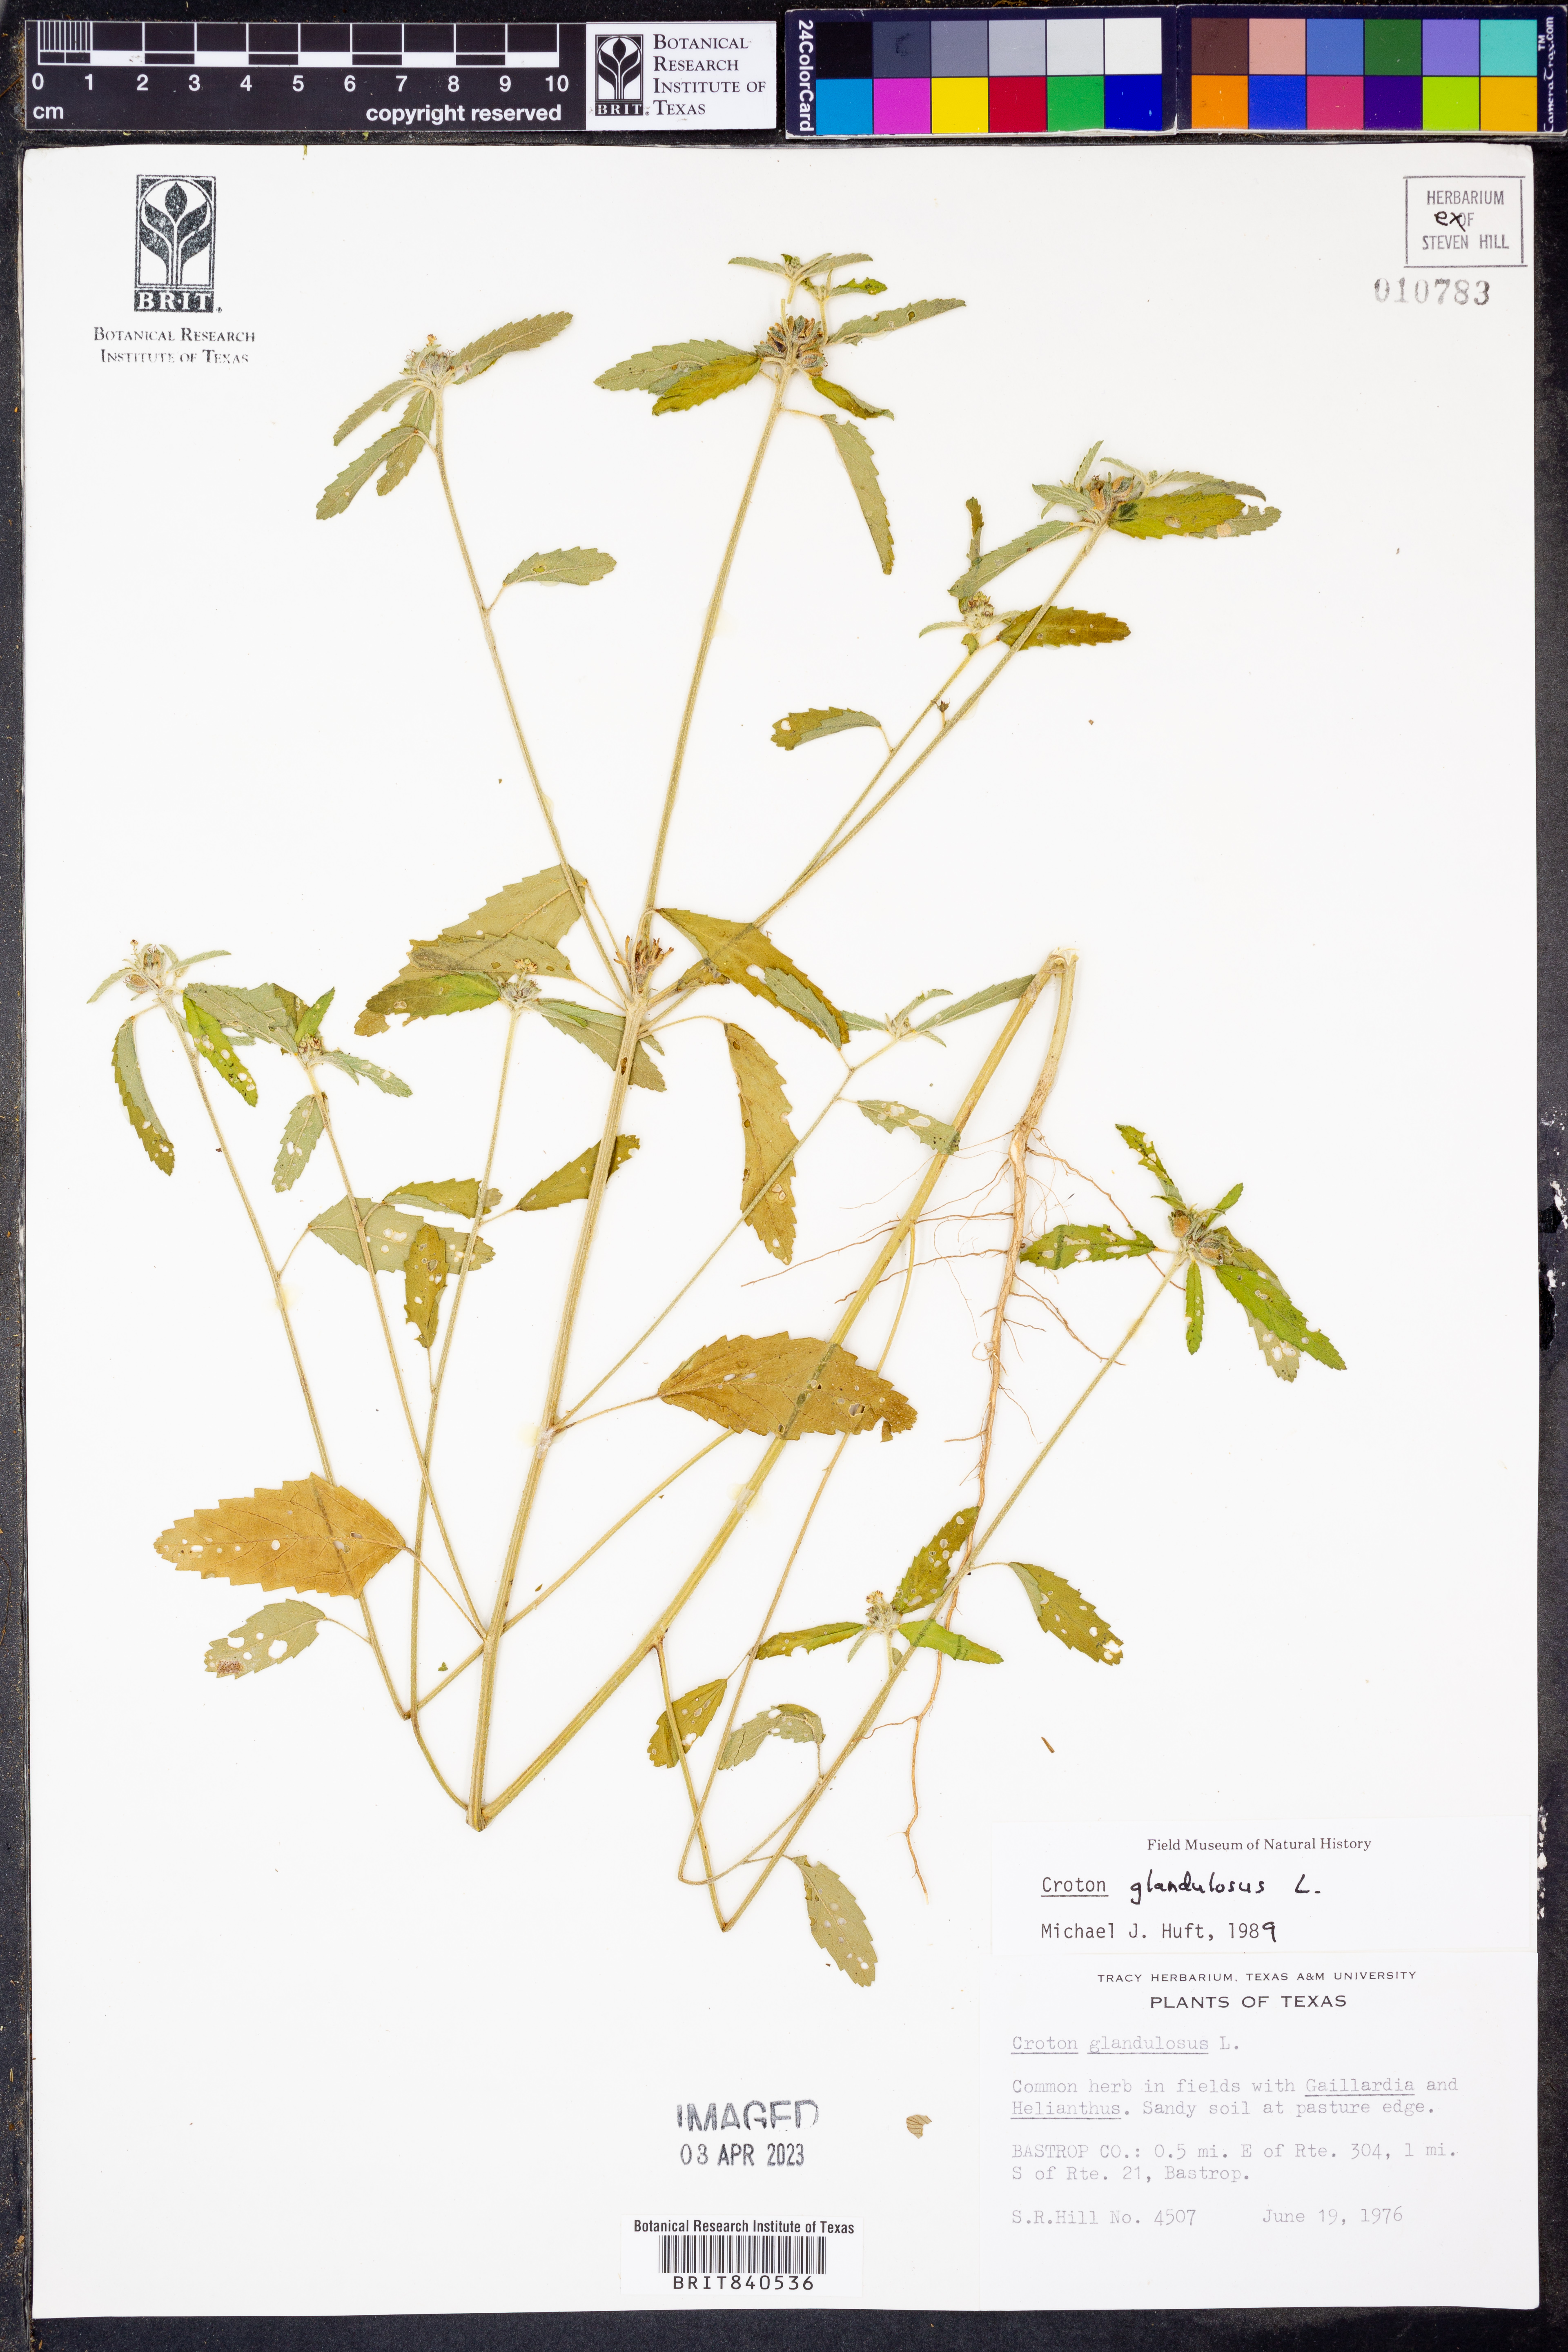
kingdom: Plantae
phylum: Tracheophyta
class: Magnoliopsida
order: Malpighiales
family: Euphorbiaceae
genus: Croton
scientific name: Croton glandulosus
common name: Tropic croton
